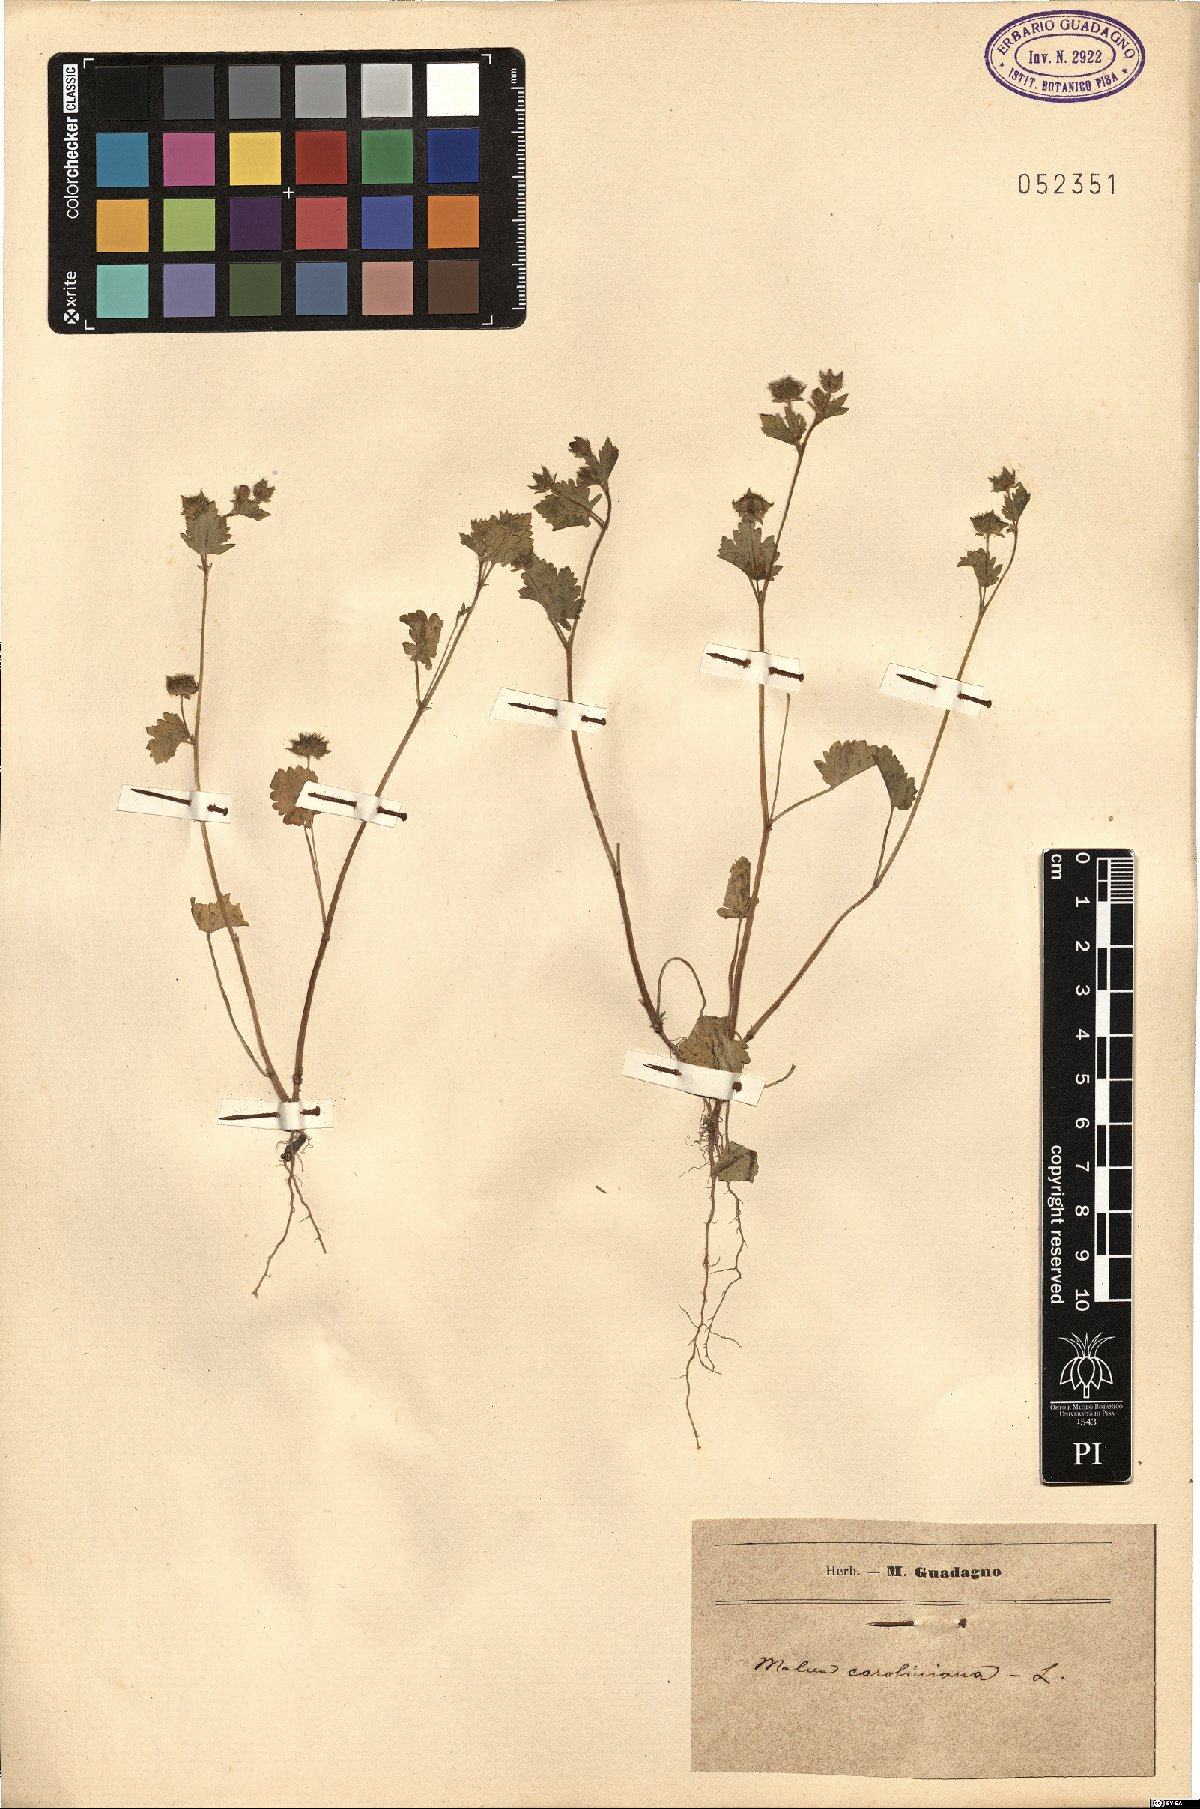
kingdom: Plantae
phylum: Tracheophyta
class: Magnoliopsida
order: Malvales
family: Malvaceae
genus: Modiola
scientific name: Modiola caroliniana
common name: Carolina bristlemallow
